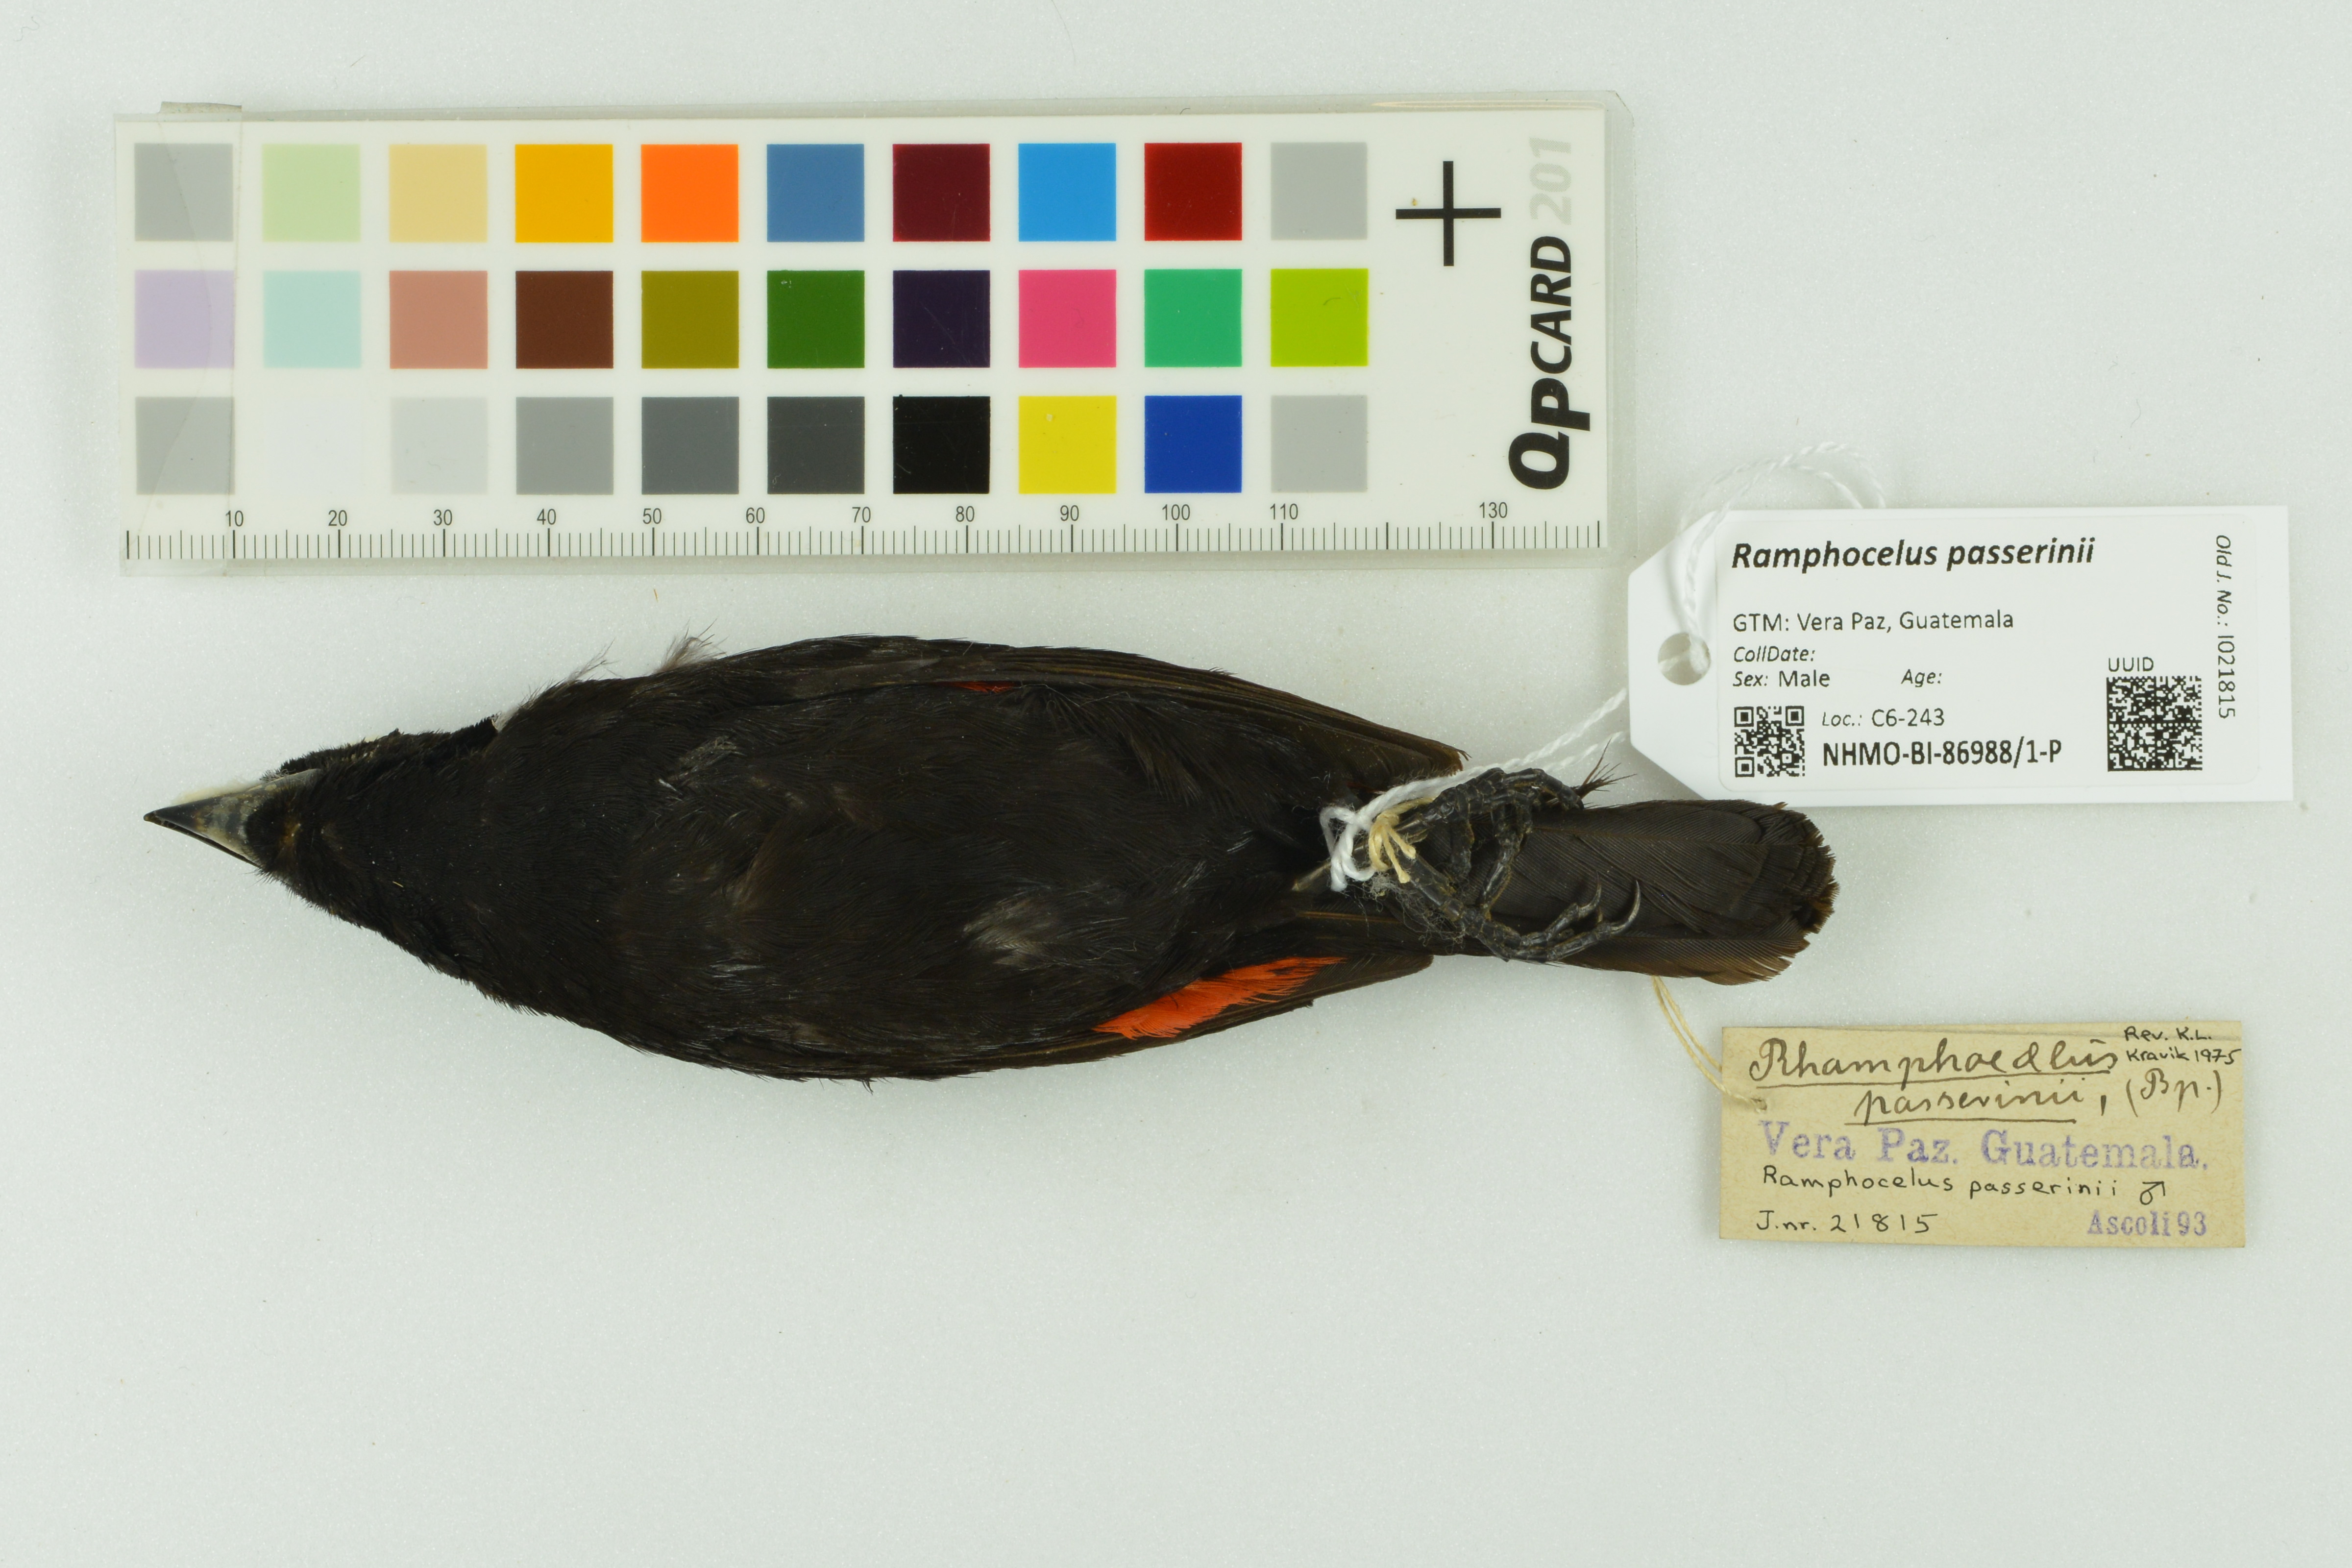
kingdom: Animalia
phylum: Chordata
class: Aves
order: Passeriformes
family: Thraupidae
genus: Ramphocelus
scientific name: Ramphocelus passerinii
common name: Passerini's tanager
